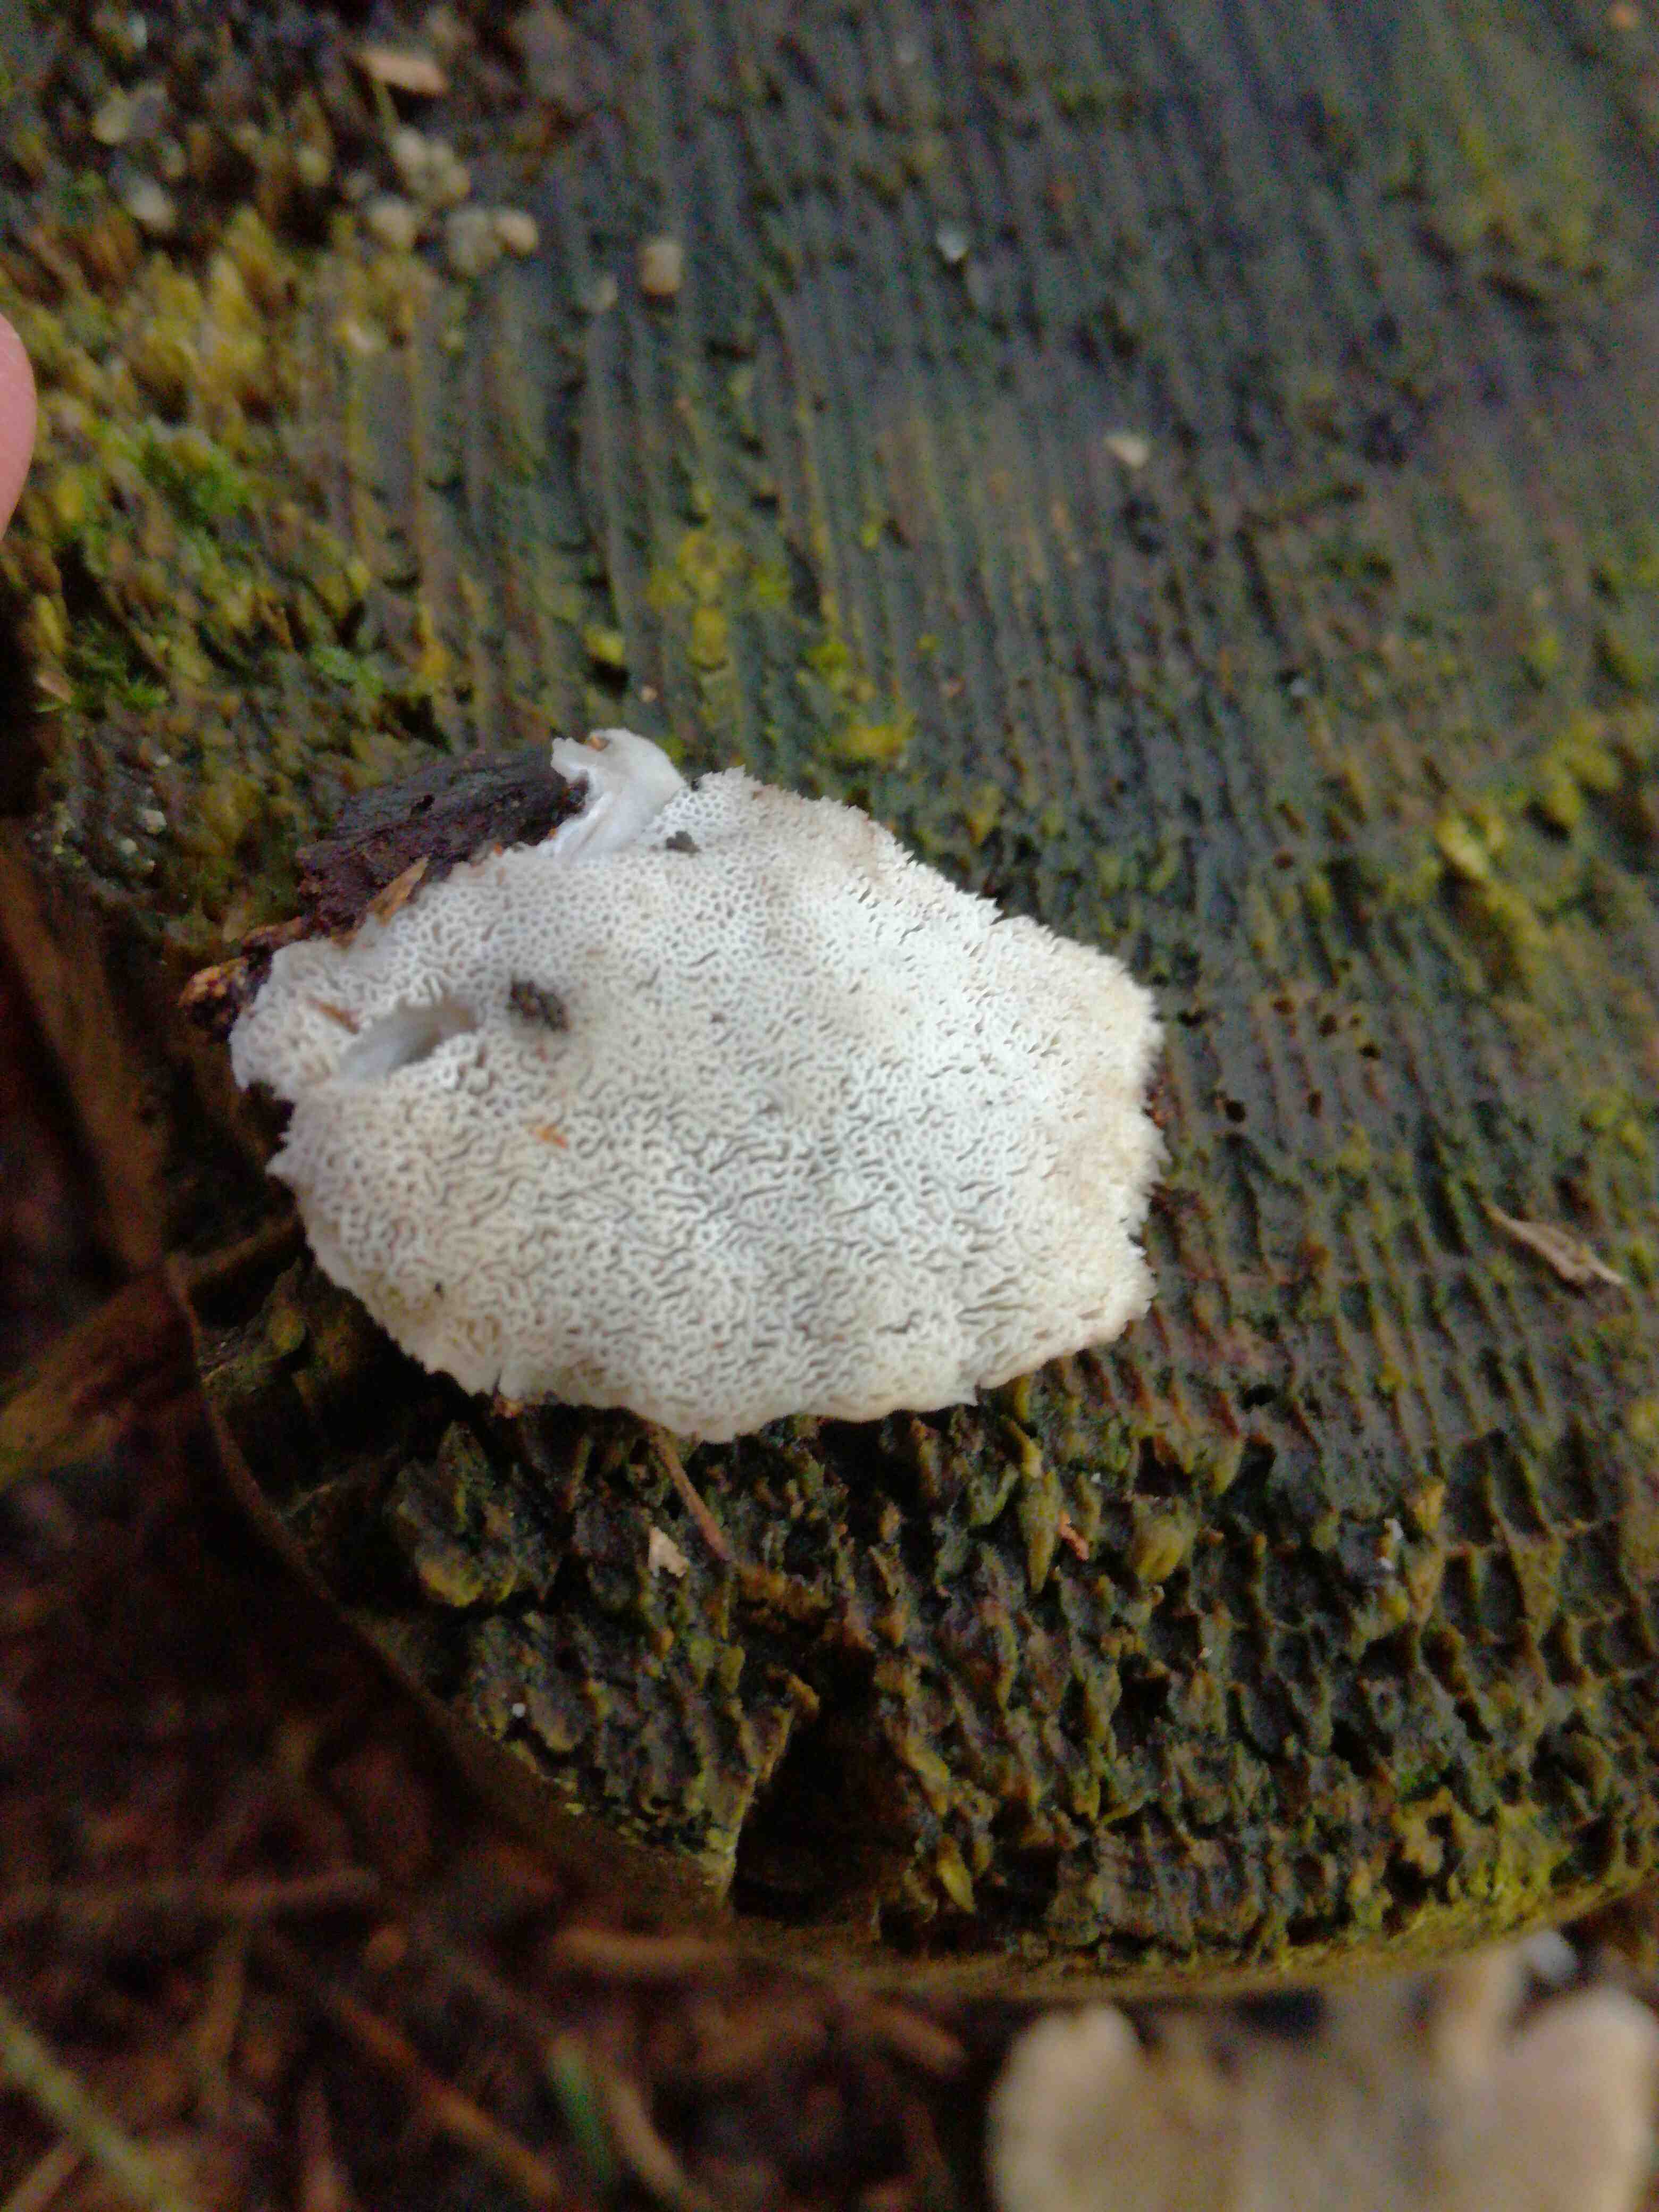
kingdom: Fungi
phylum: Basidiomycota
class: Agaricomycetes
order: Polyporales
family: Polyporaceae
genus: Cyanosporus
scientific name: Cyanosporus caesius
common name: blålig kødporesvamp
